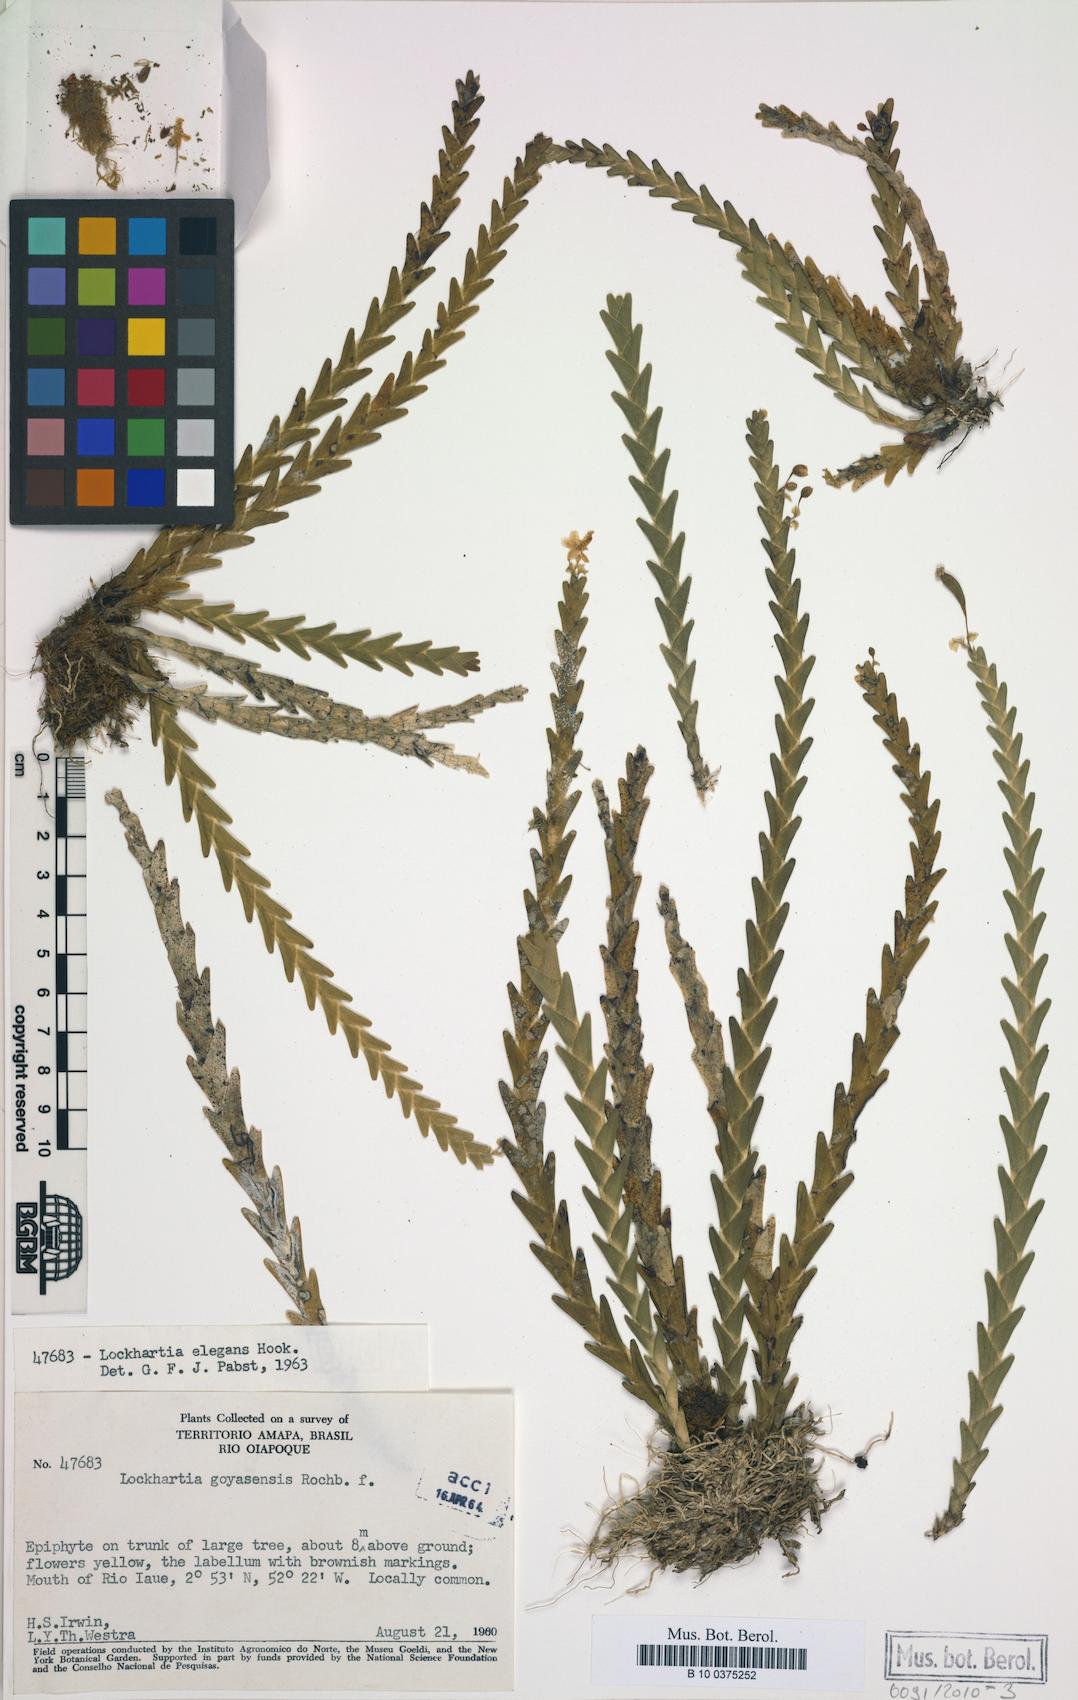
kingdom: Plantae
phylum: Tracheophyta
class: Liliopsida
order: Asparagales
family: Orchidaceae
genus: Lockhartia
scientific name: Lockhartia imbricata
